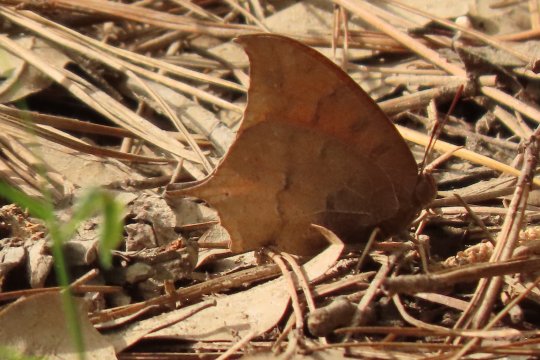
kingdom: Animalia
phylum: Arthropoda
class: Insecta
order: Lepidoptera
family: Nymphalidae
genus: Anaea
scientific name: Anaea andria
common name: Goatweed Leafwing
